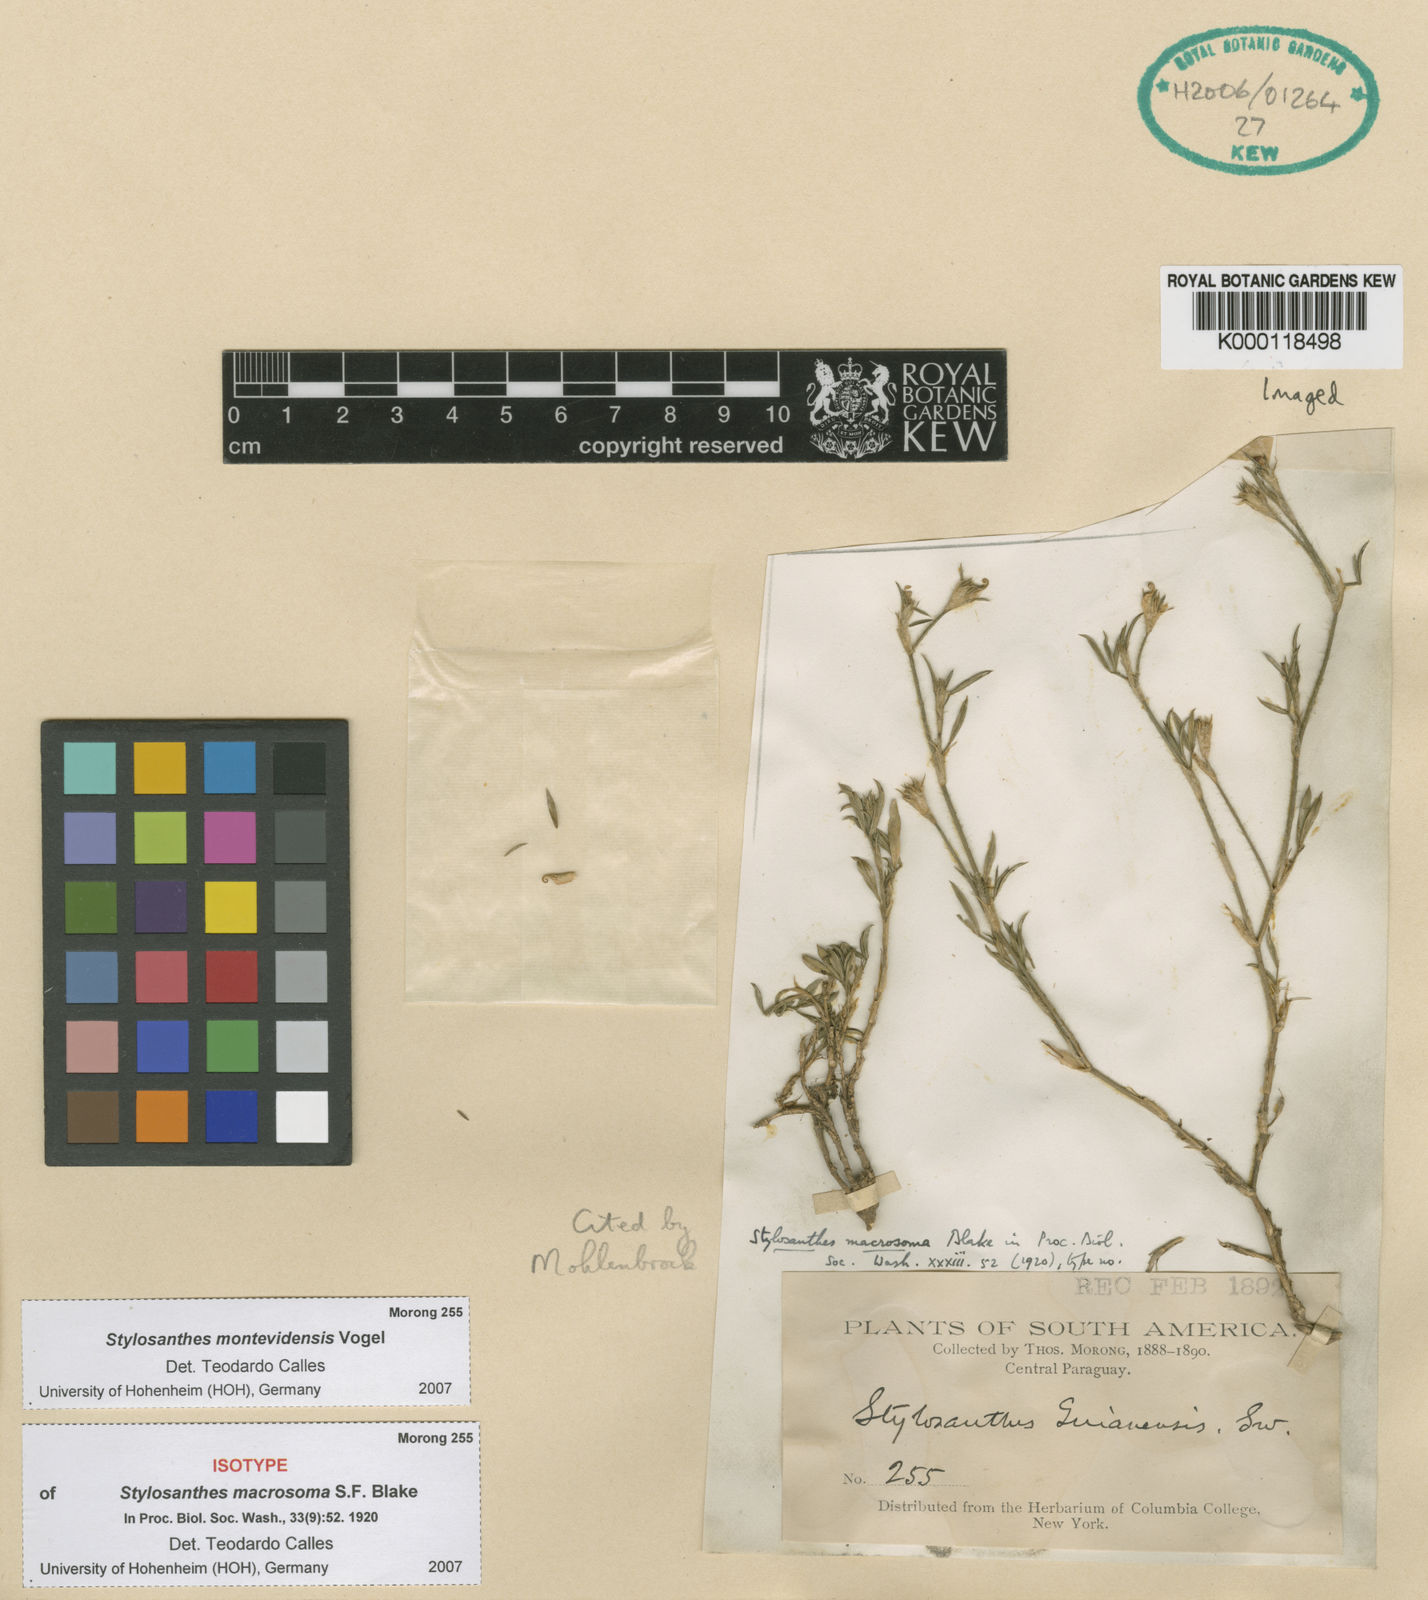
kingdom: Plantae
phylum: Tracheophyta
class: Magnoliopsida
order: Fabales
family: Fabaceae
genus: Stylosanthes
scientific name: Stylosanthes montevidensis
